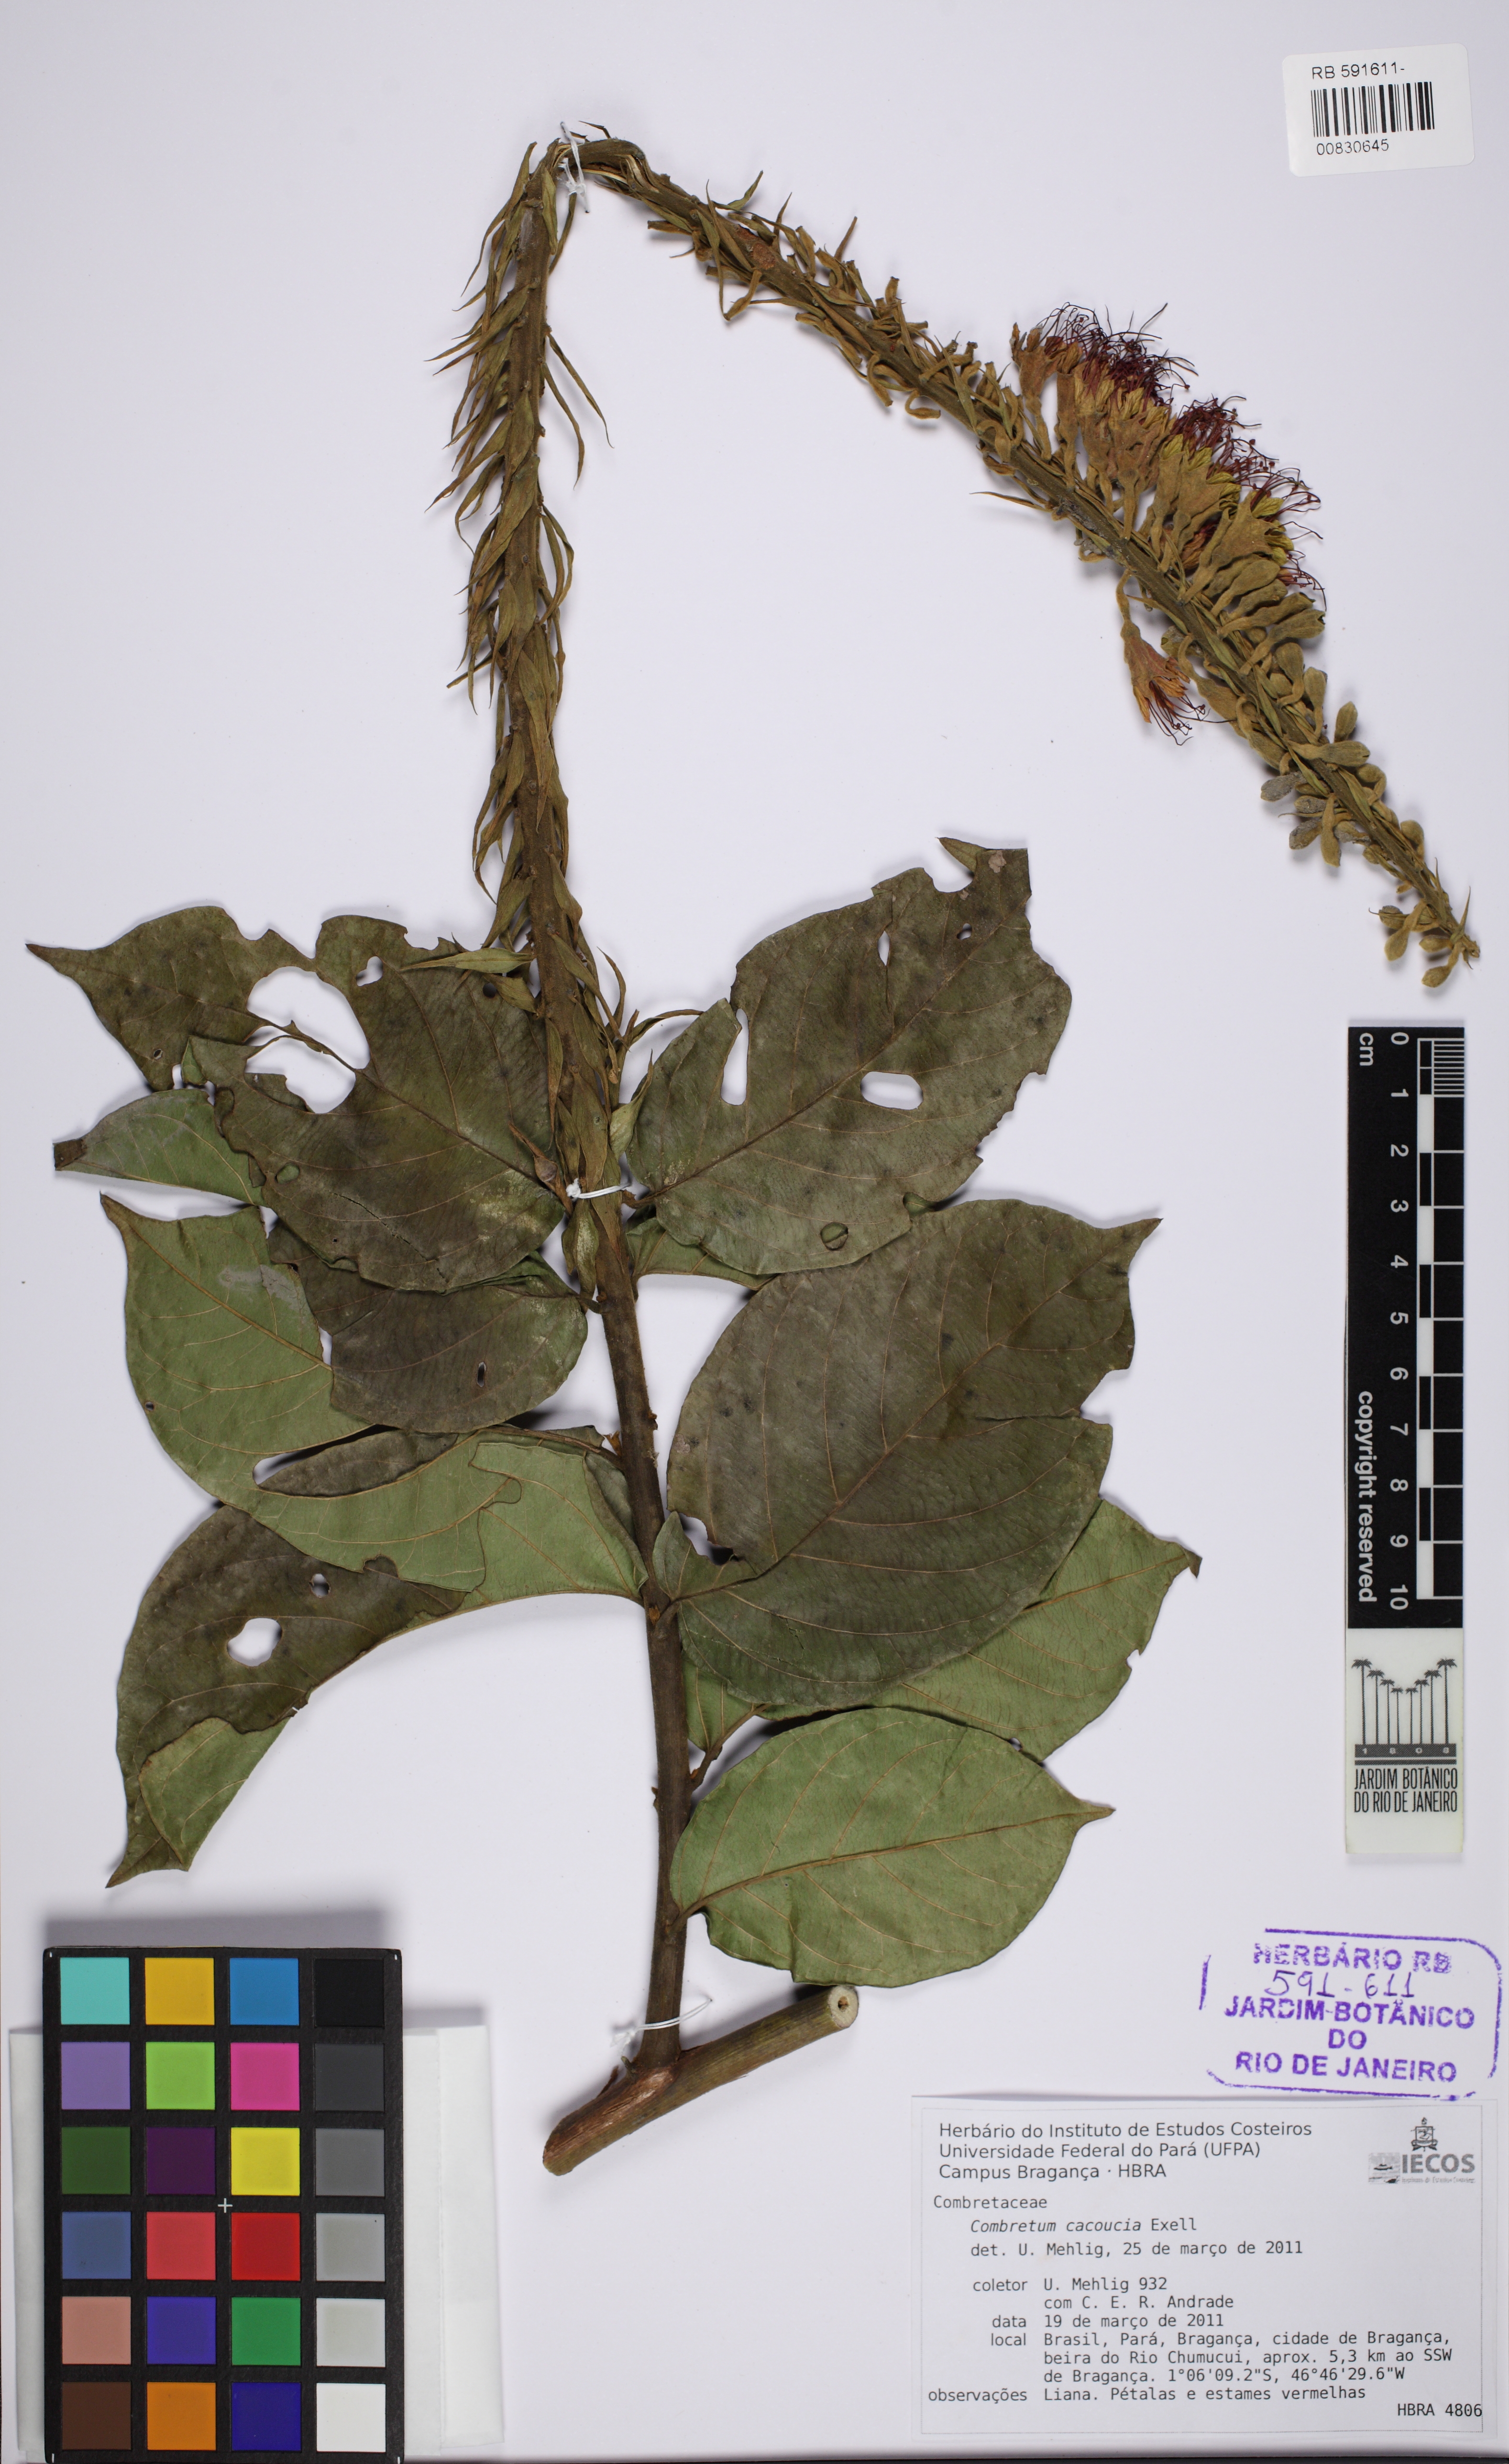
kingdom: Plantae
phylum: Tracheophyta
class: Magnoliopsida
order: Myrtales
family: Combretaceae
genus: Combretum
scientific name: Combretum cacoucia
